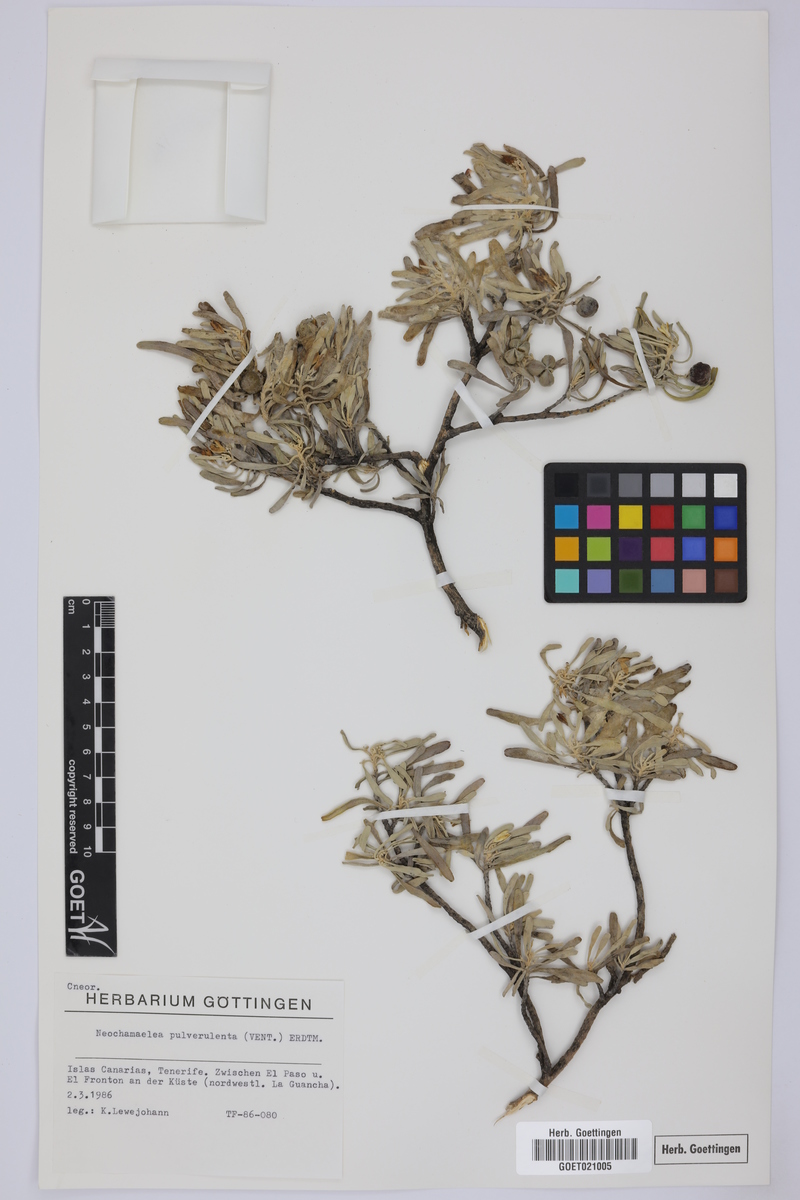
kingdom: Plantae
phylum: Tracheophyta
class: Magnoliopsida
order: Sapindales
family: Rutaceae
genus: Cneorum
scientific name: Cneorum pulverulentum
